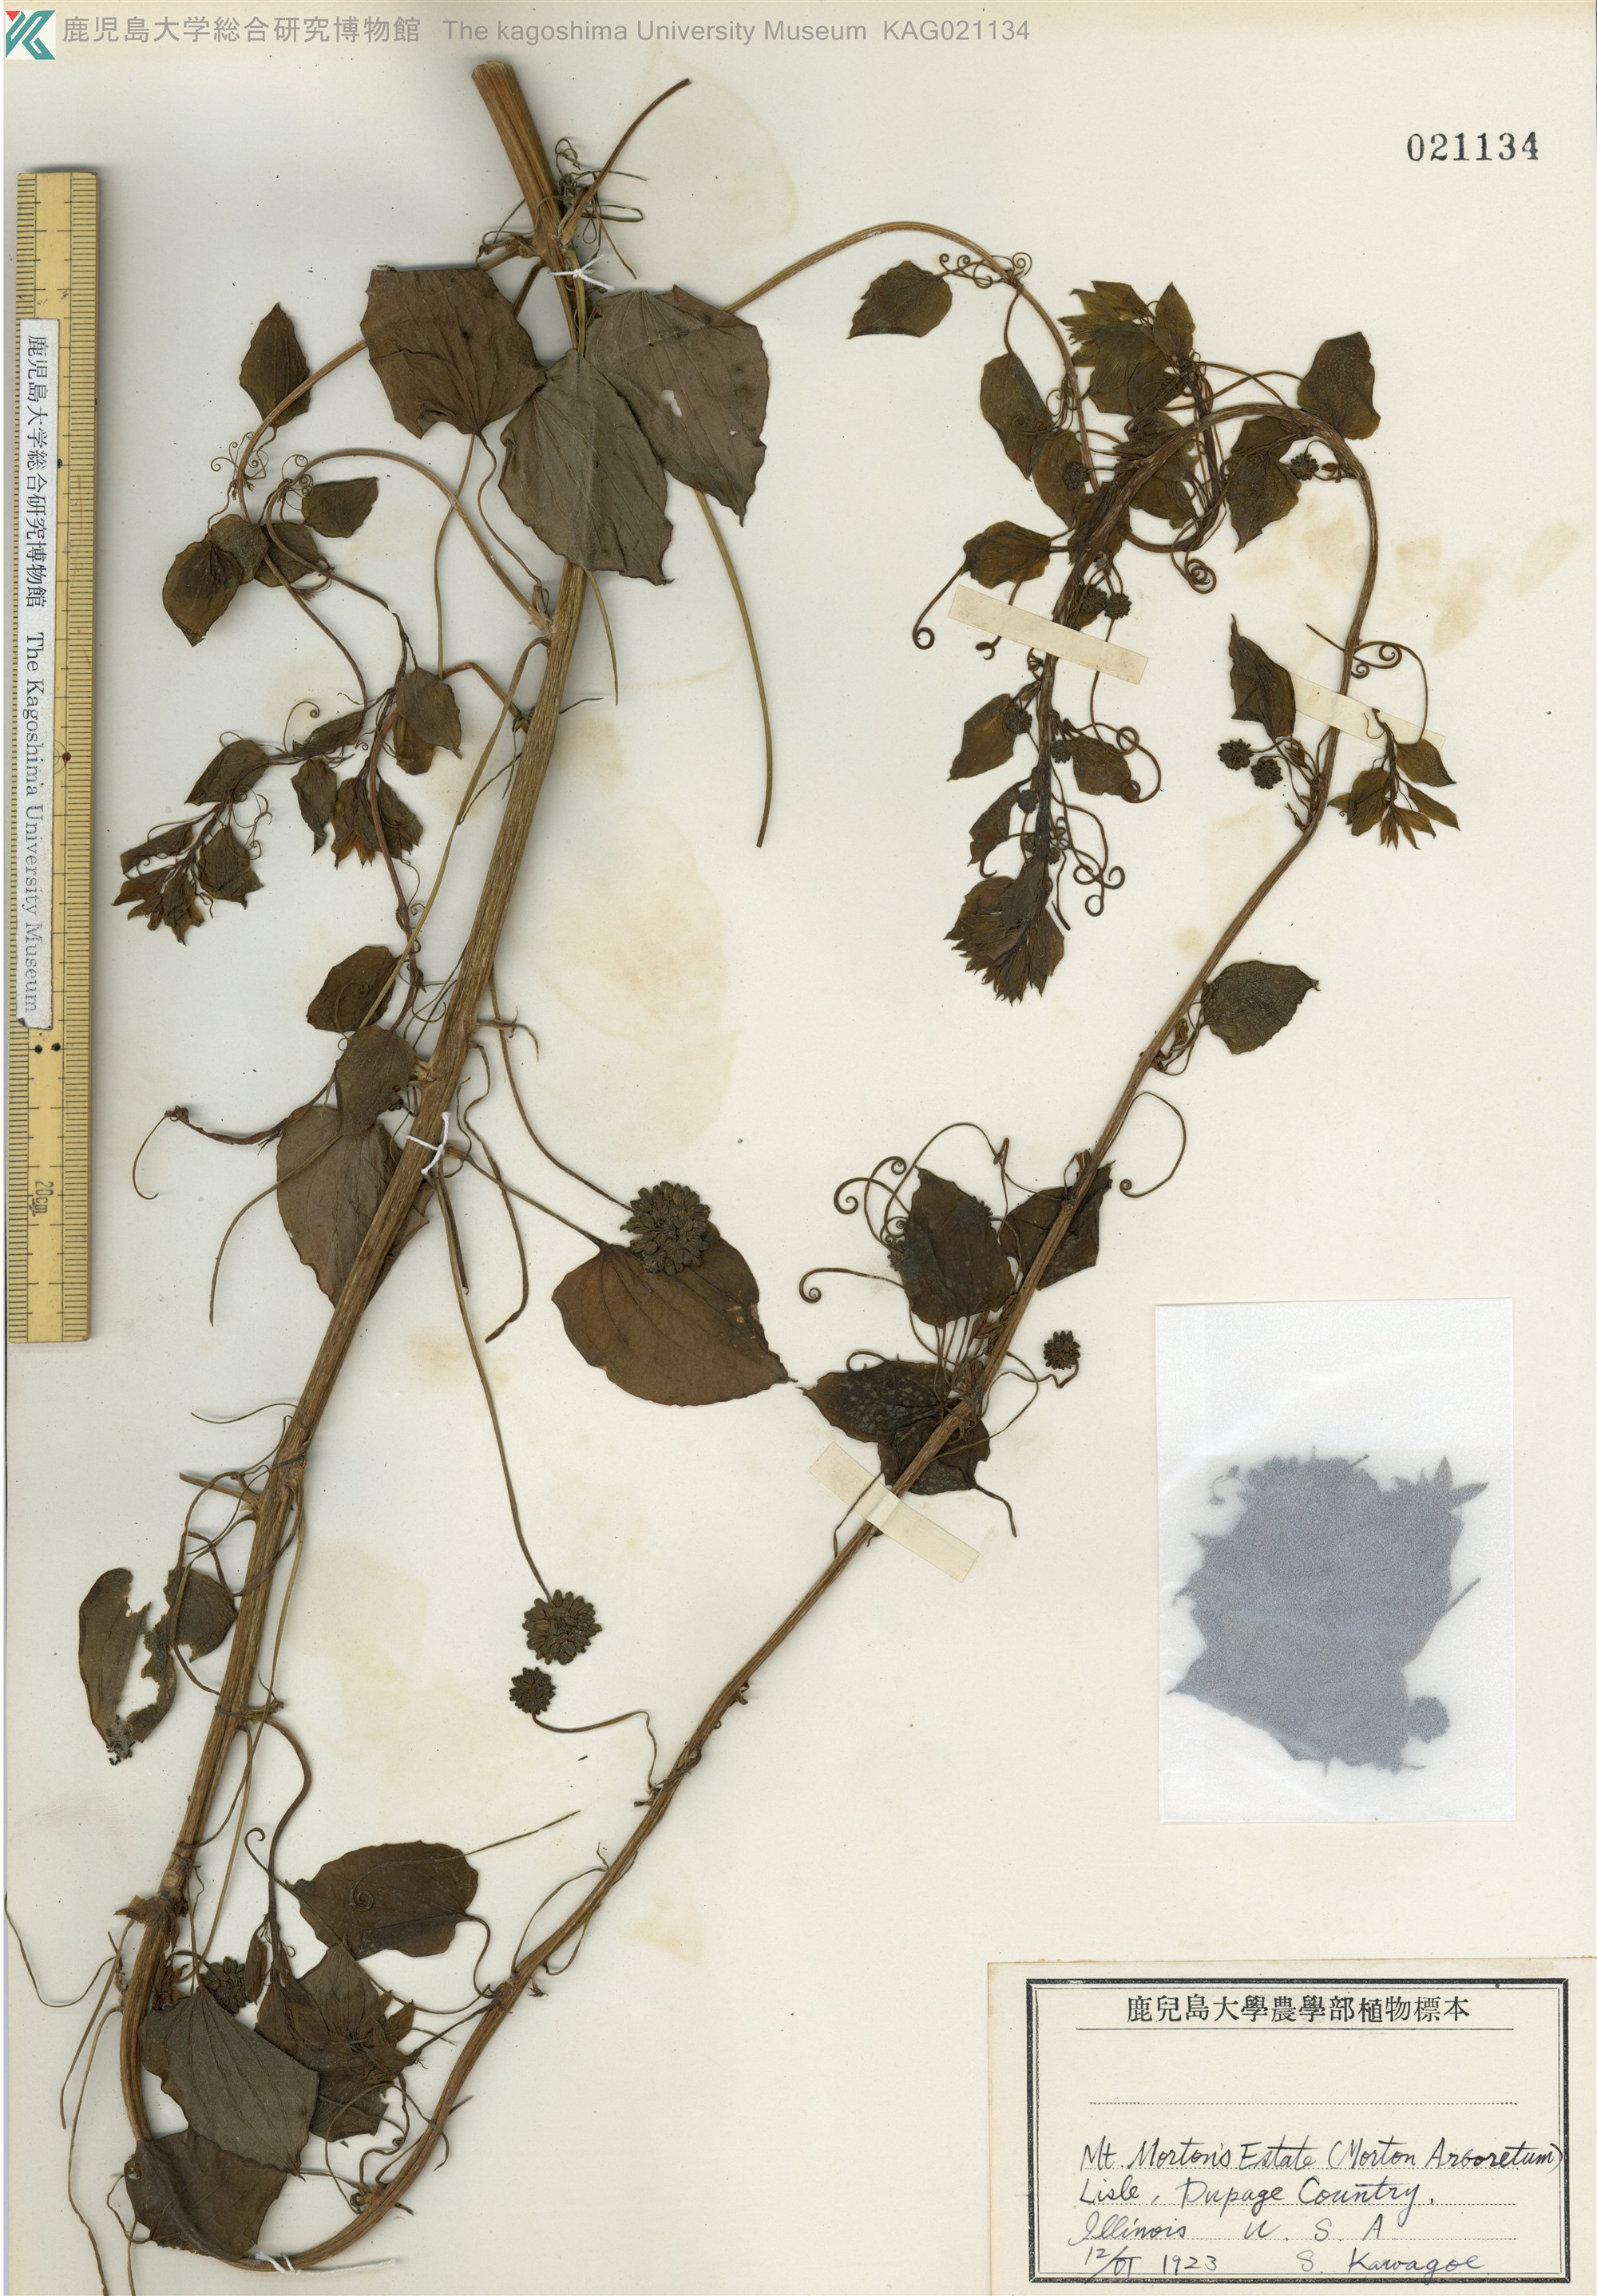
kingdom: Plantae
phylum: Tracheophyta
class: Liliopsida
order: Liliales
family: Smilacaceae
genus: Smilax
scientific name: Smilax herbacea
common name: Jacob's-ladder
